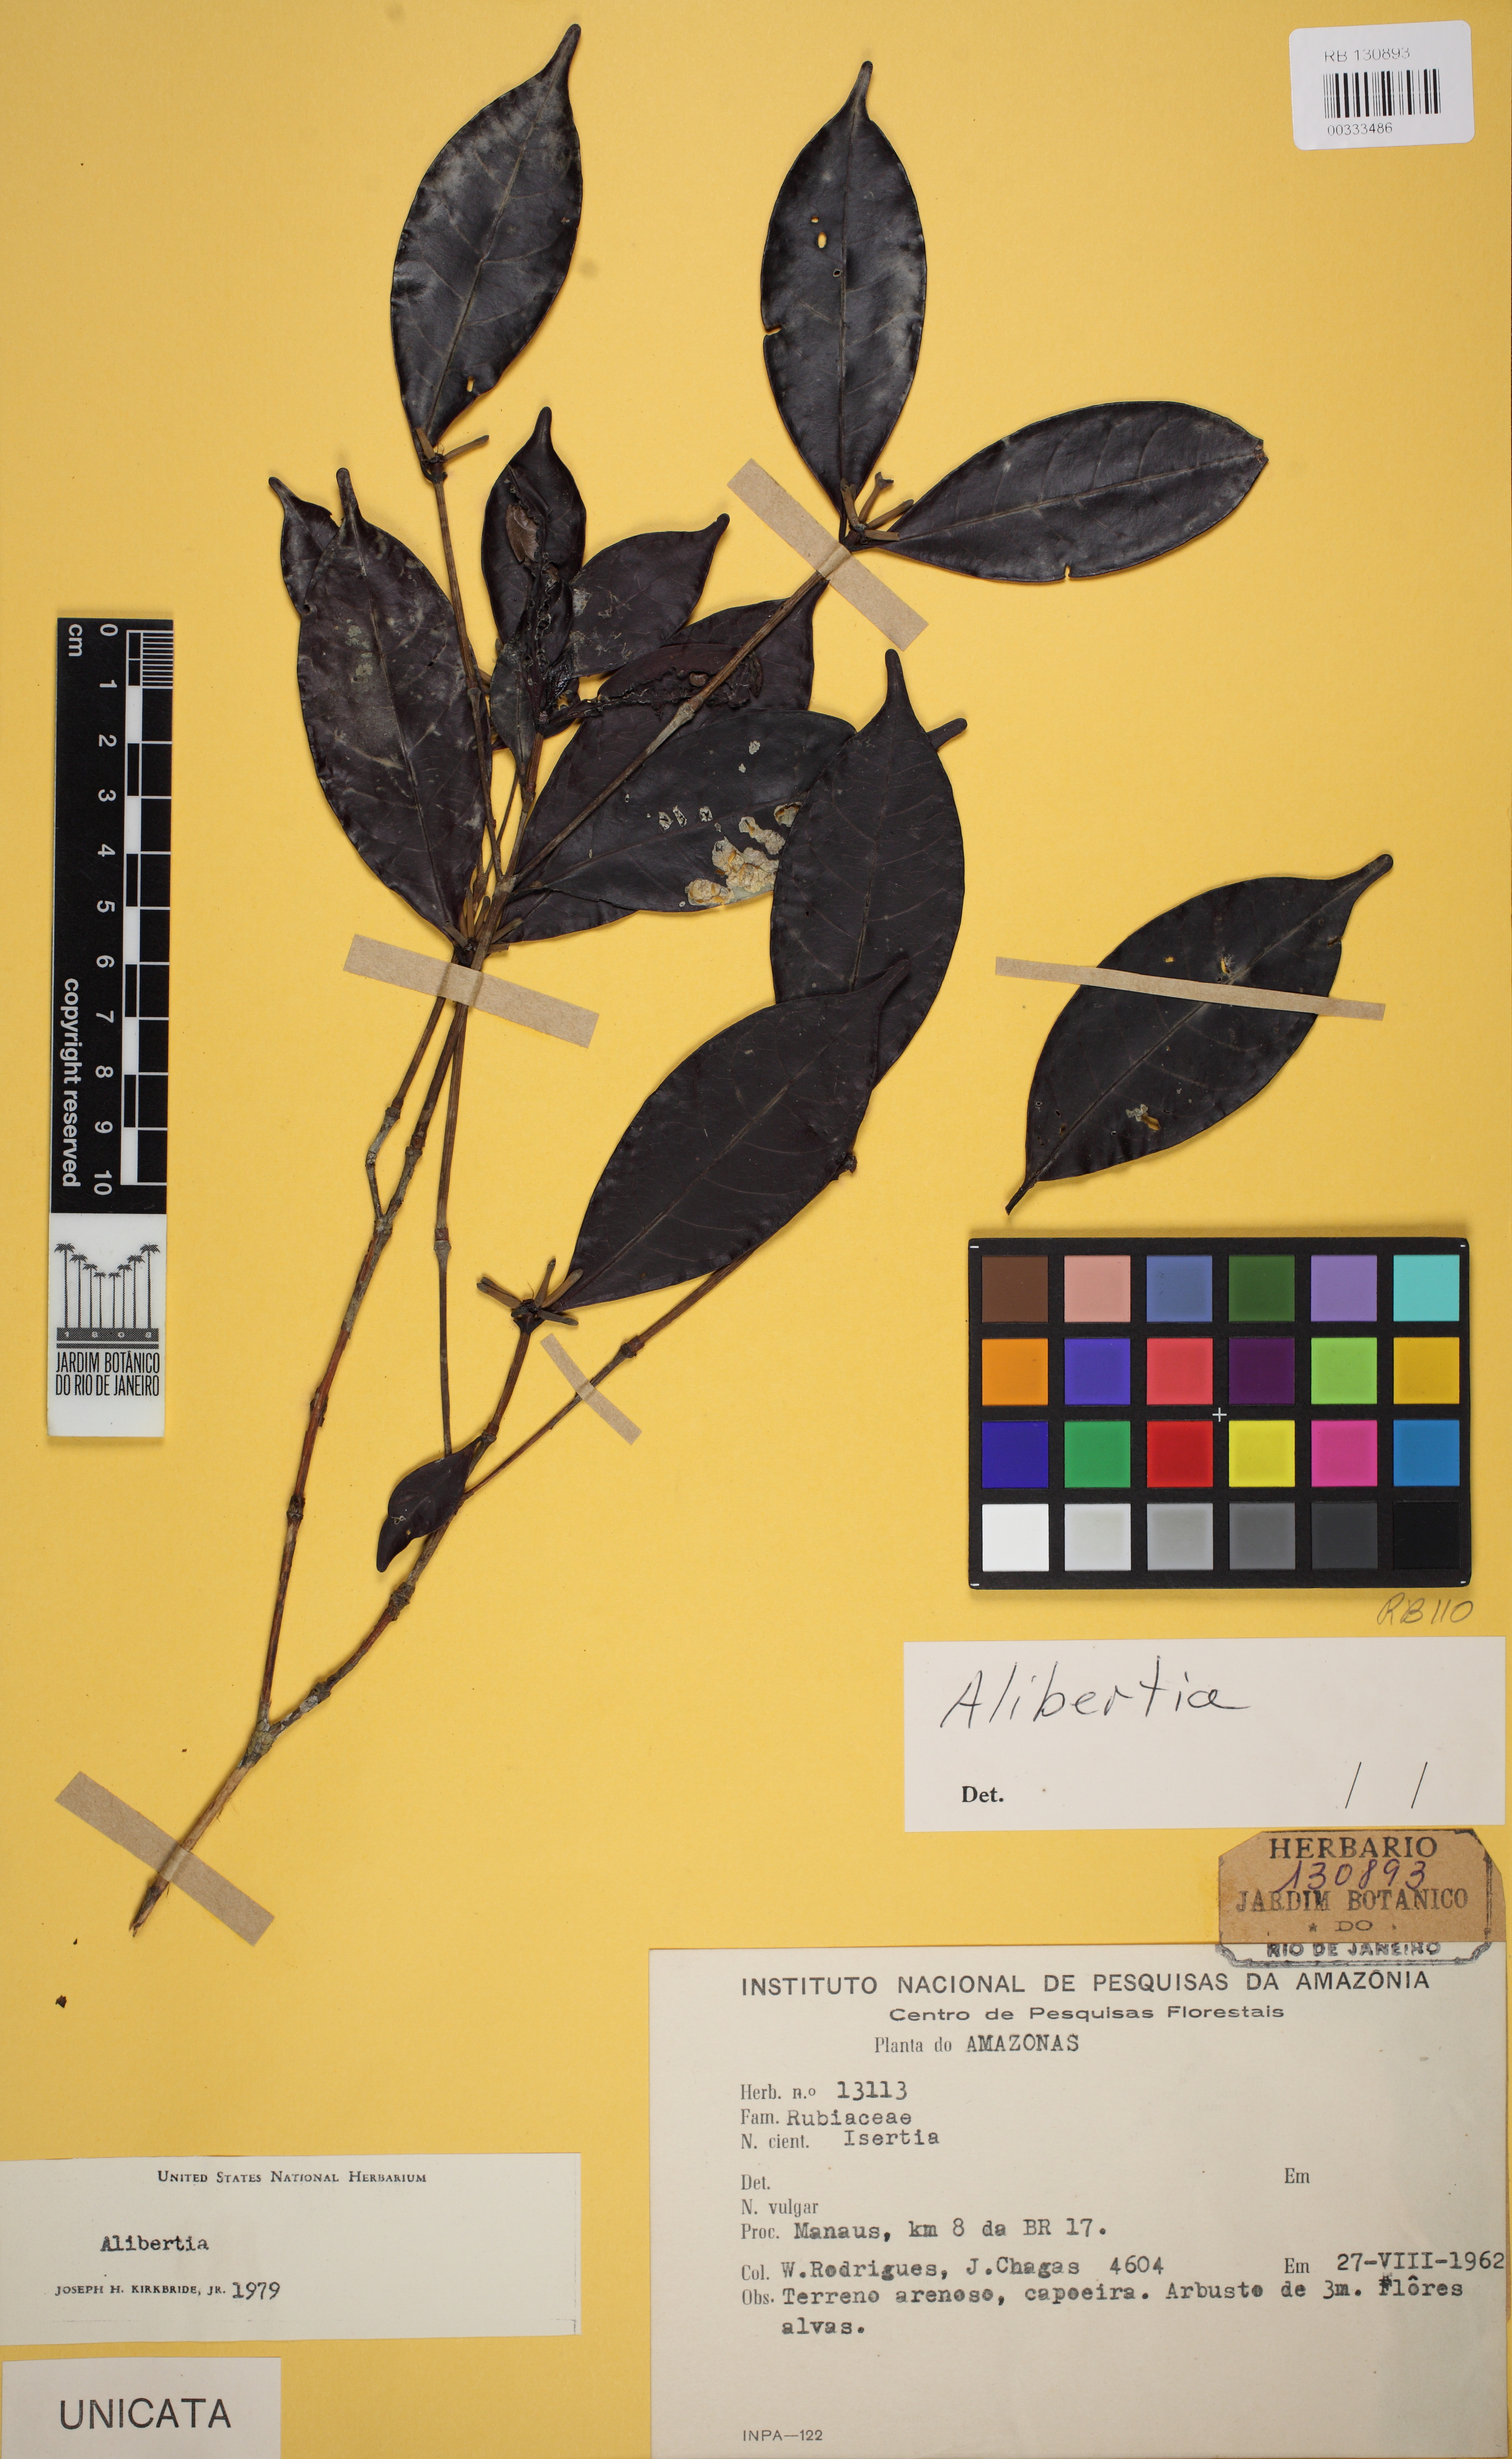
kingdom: Plantae
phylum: Tracheophyta
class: Magnoliopsida
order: Gentianales
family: Rubiaceae
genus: Cordiera
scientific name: Cordiera
